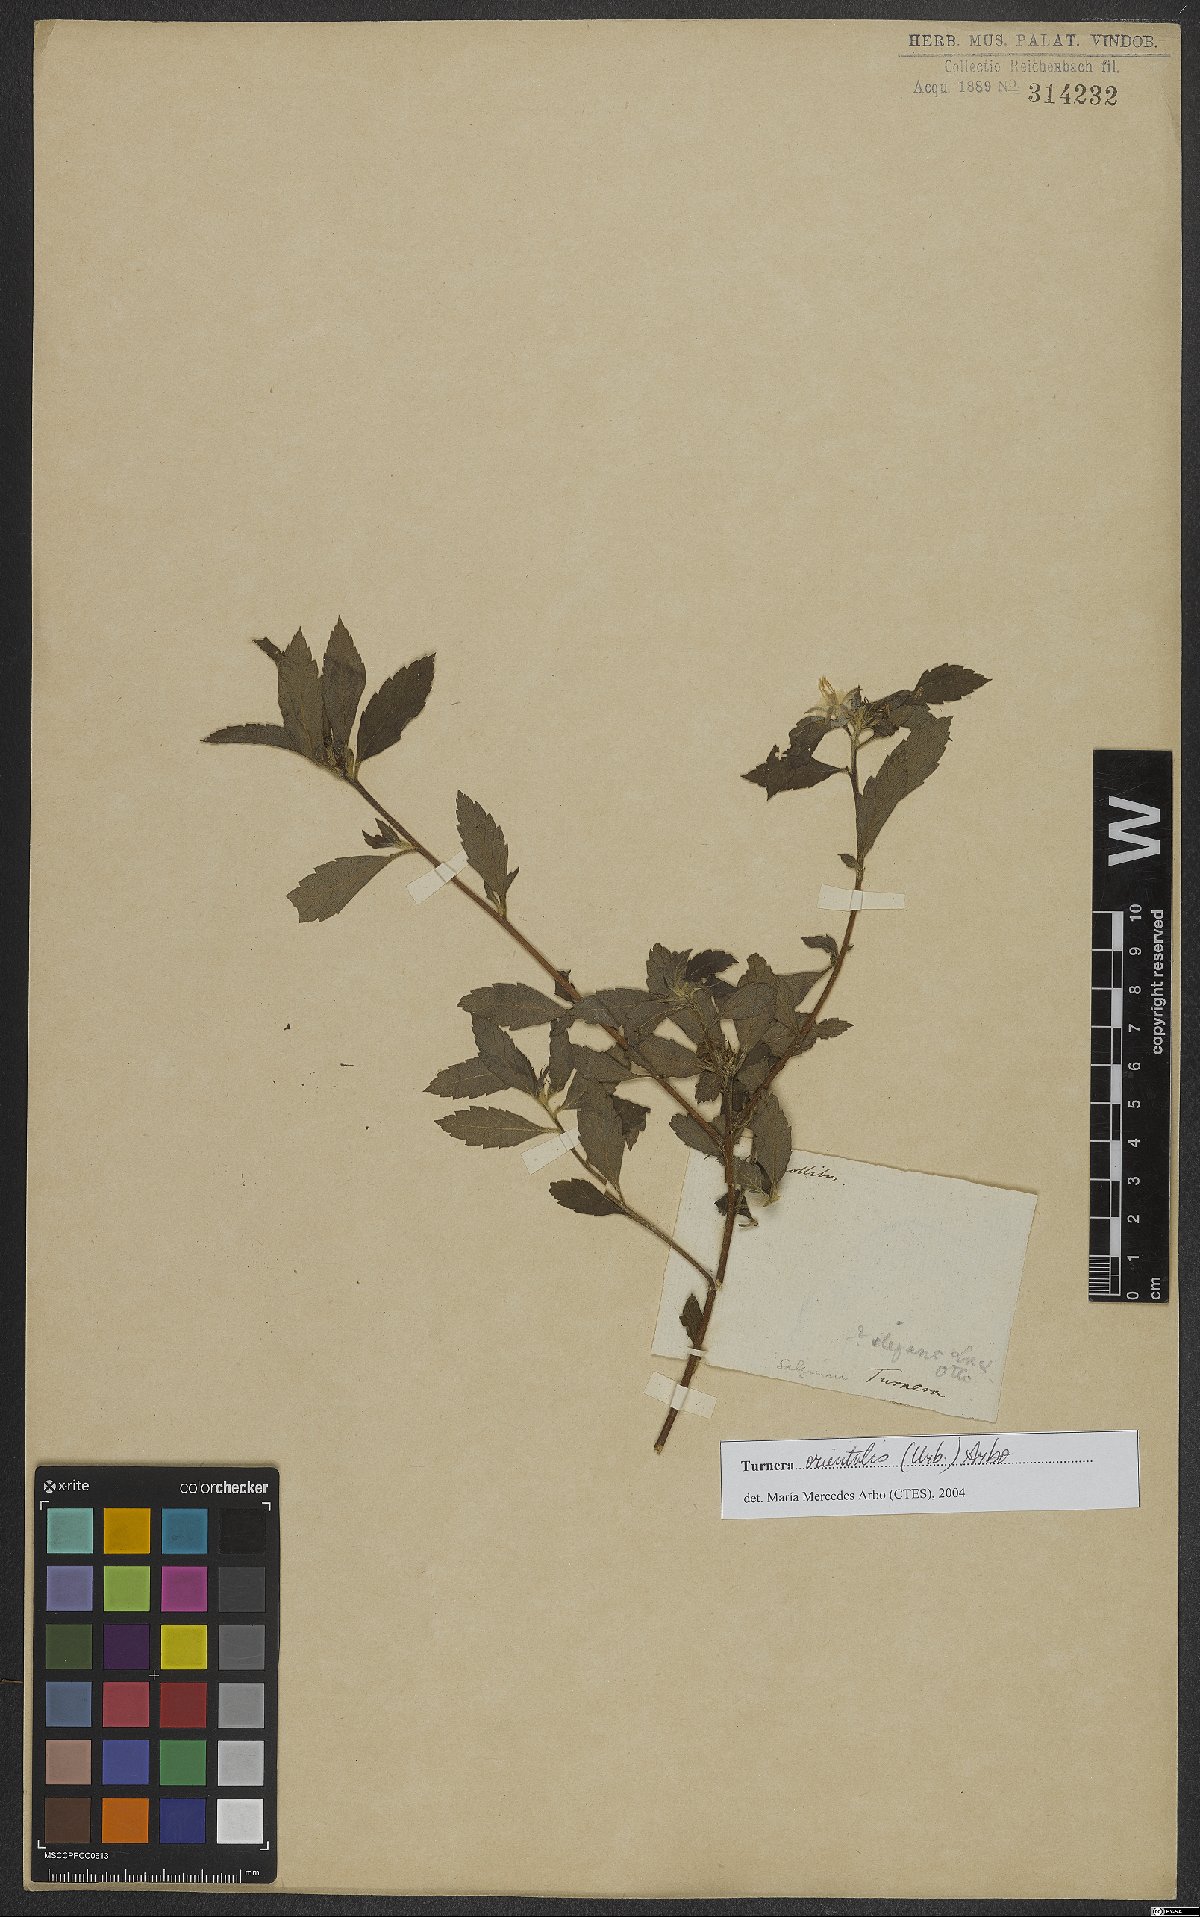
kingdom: Plantae
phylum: Tracheophyta
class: Magnoliopsida
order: Malpighiales
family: Turneraceae
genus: Turnera
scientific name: Turnera orientalis
